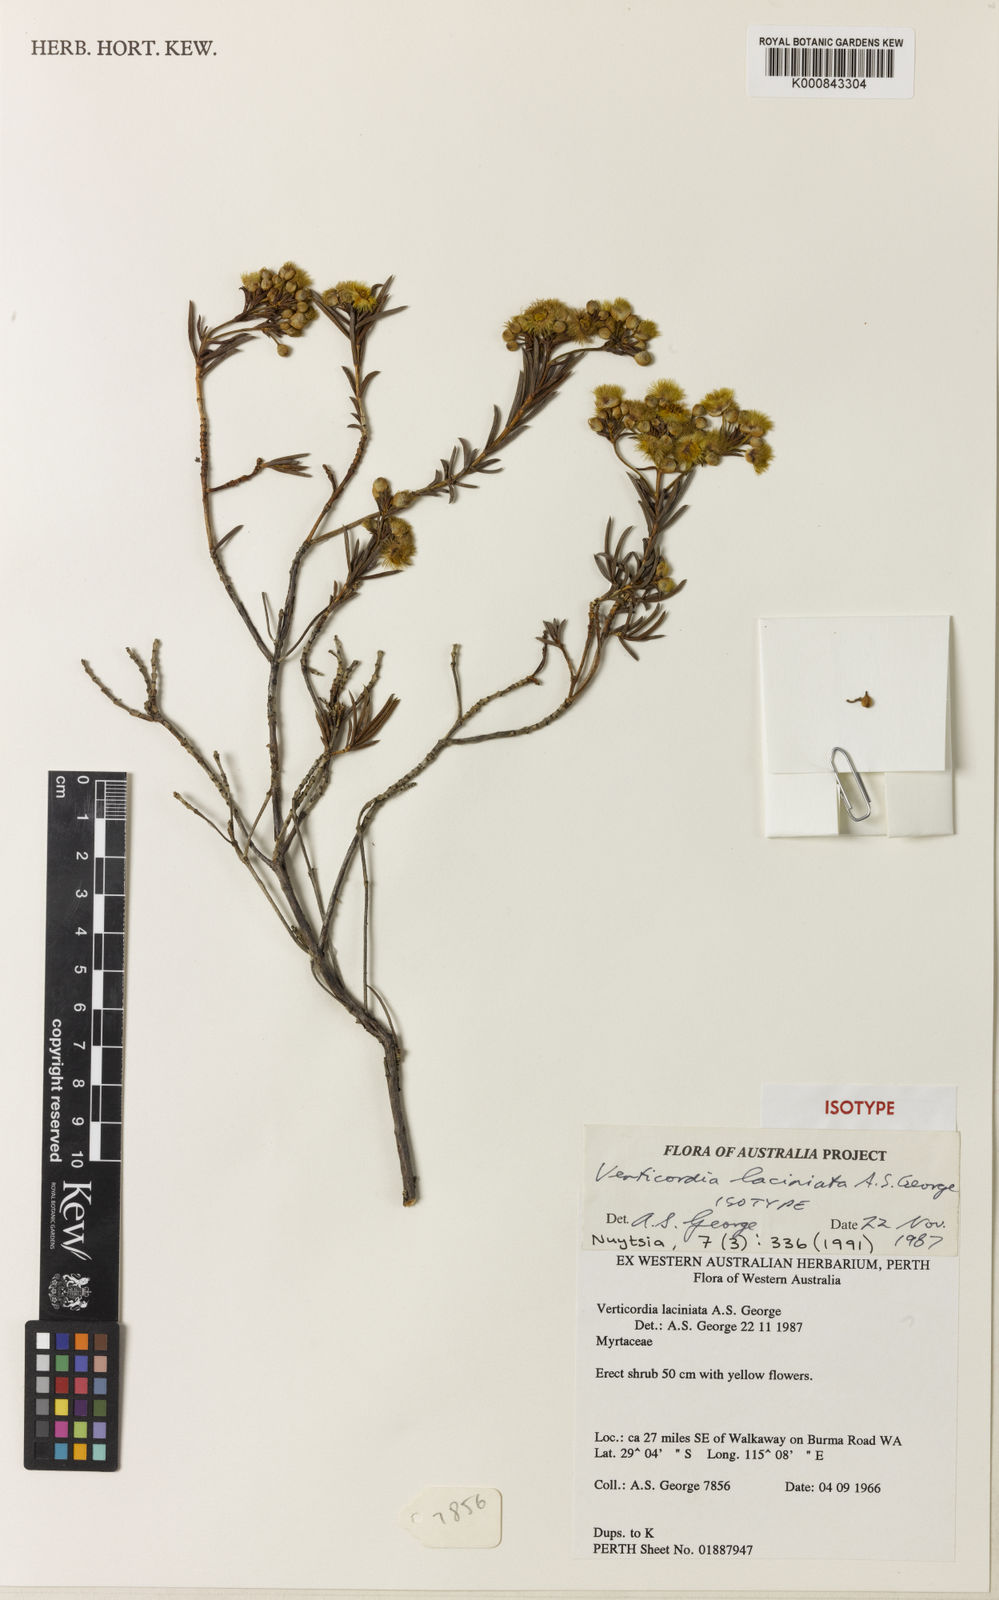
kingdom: Plantae
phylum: Tracheophyta
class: Magnoliopsida
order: Myrtales
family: Myrtaceae
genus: Verticordia
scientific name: Verticordia laciniata
